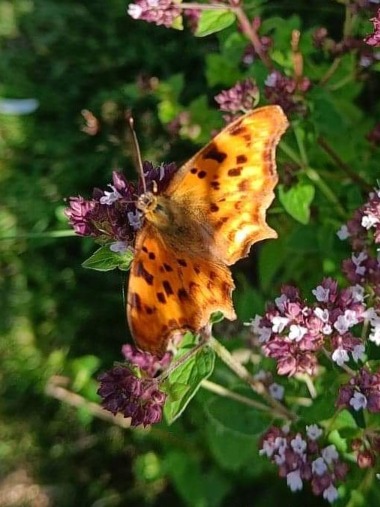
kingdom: Animalia
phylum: Arthropoda
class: Insecta
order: Lepidoptera
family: Nymphalidae
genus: Polygonia
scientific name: Polygonia c-album
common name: Det hvide C
